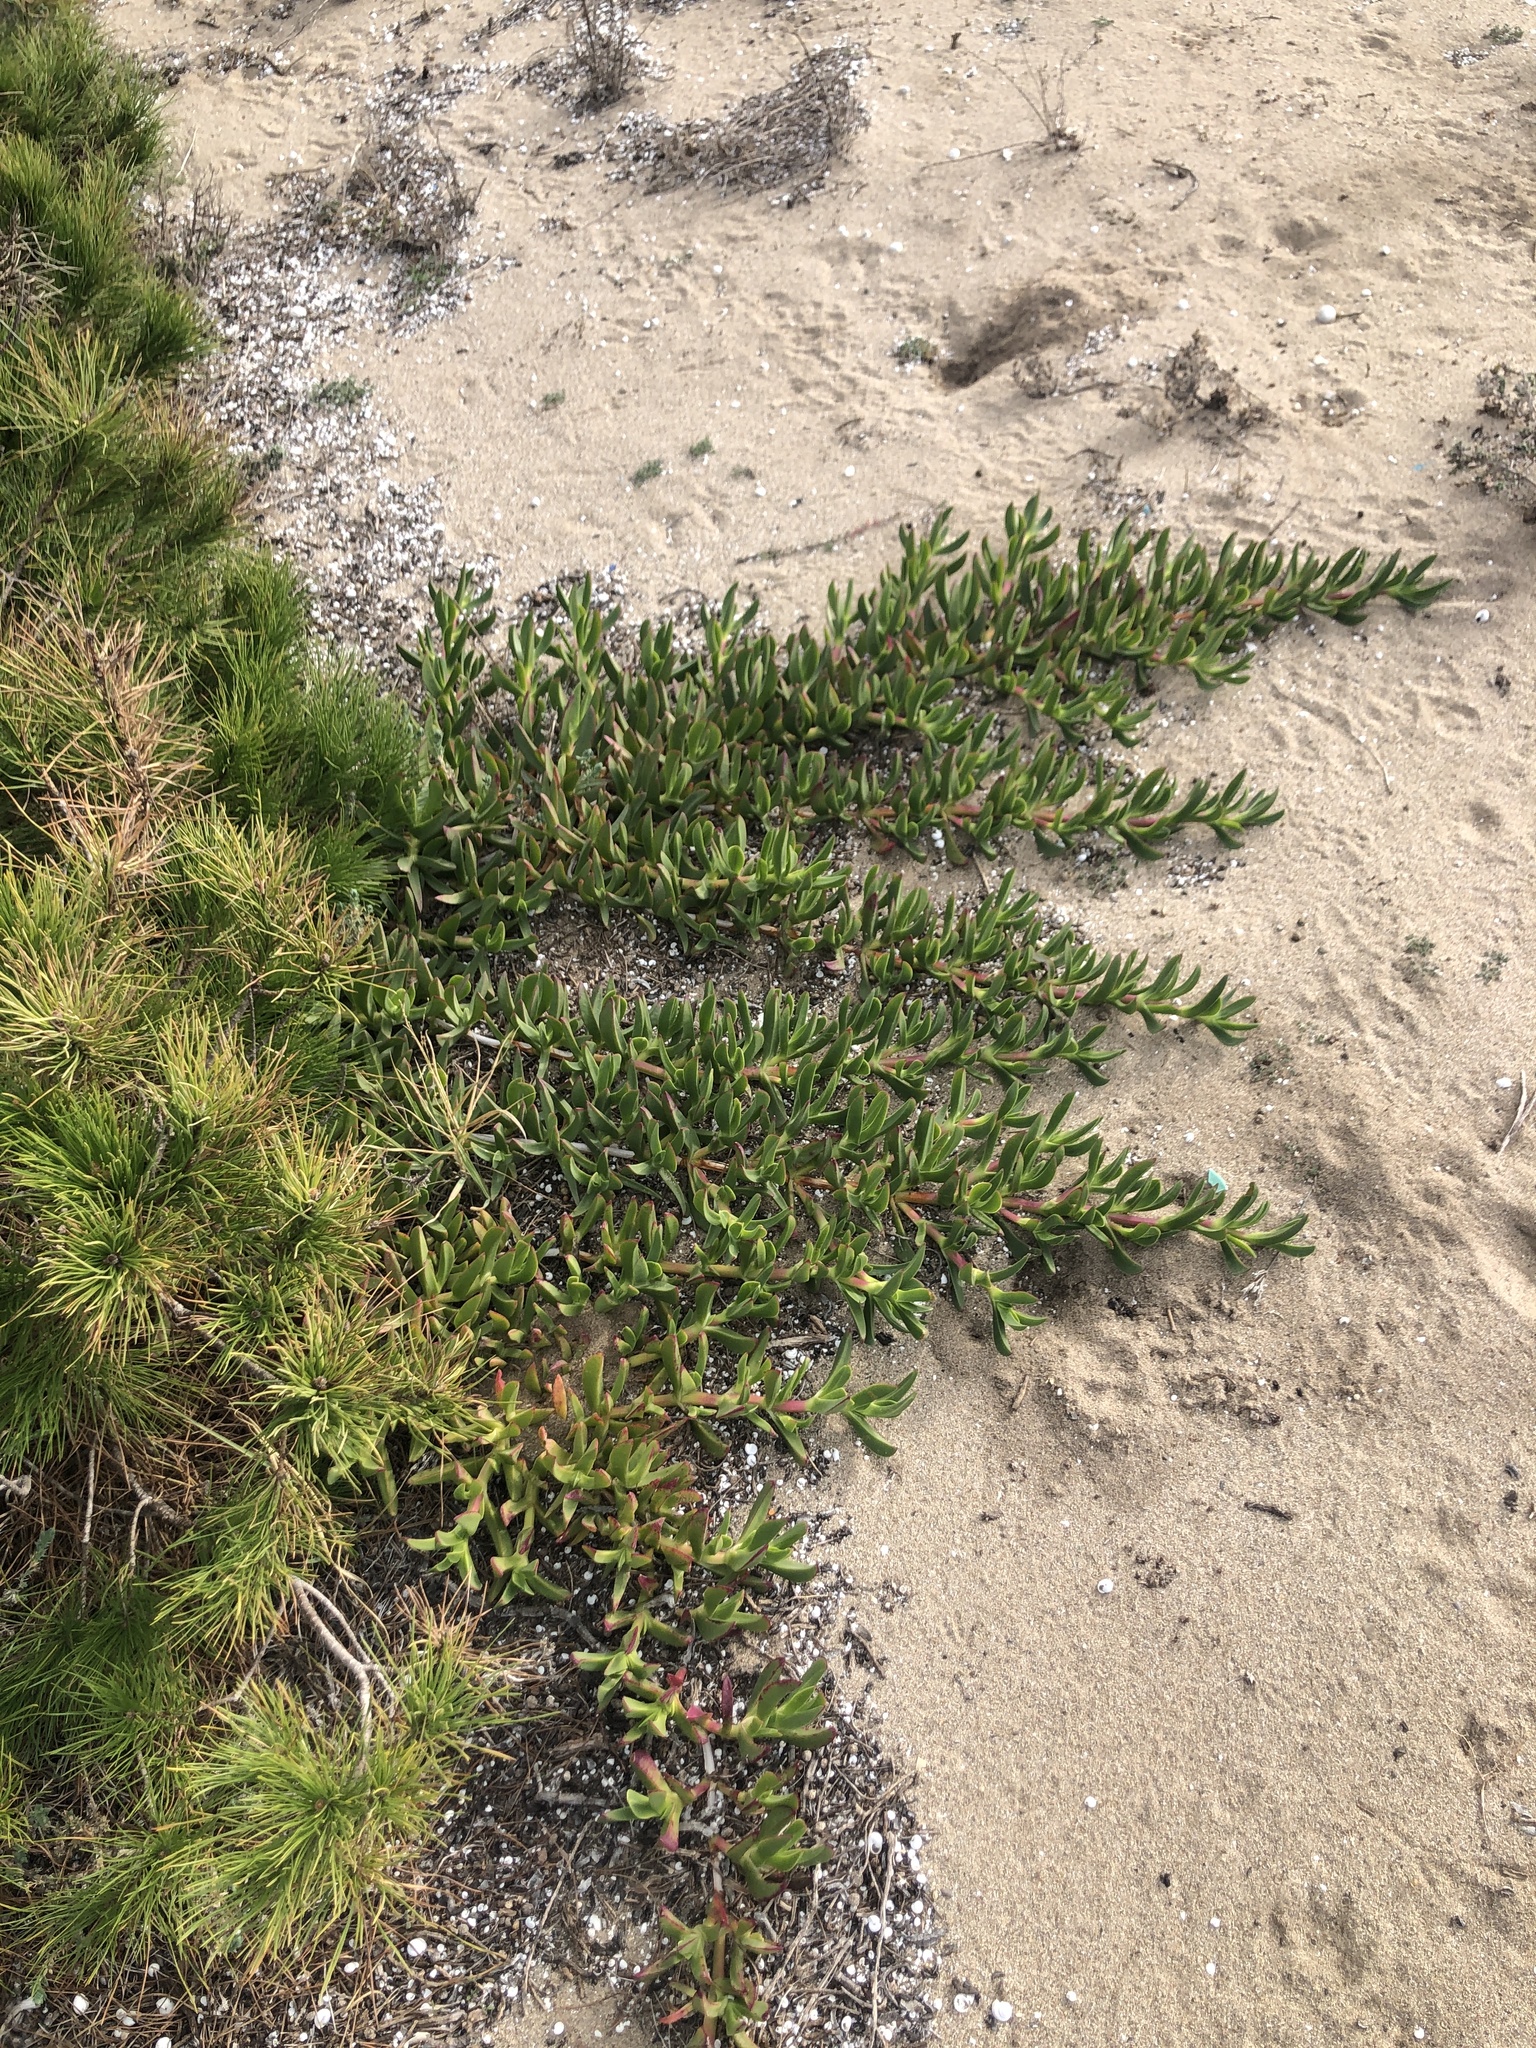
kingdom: Plantae
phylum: Tracheophyta
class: Magnoliopsida
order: Caryophyllales
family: Aizoaceae
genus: Carpobrotus
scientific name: Carpobrotus edulis
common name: Hottentot-fig
